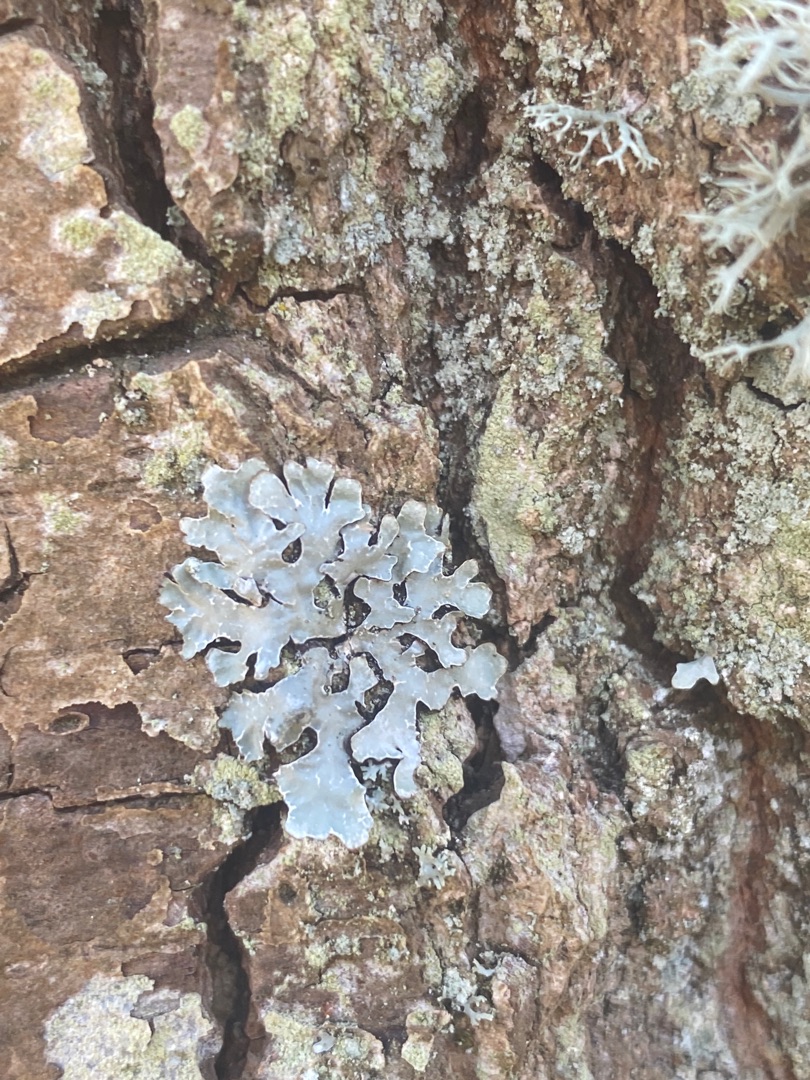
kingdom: Fungi
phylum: Ascomycota
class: Lecanoromycetes
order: Lecanorales
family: Parmeliaceae
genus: Parmelia
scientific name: Parmelia sulcata
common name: Rynket skållav
